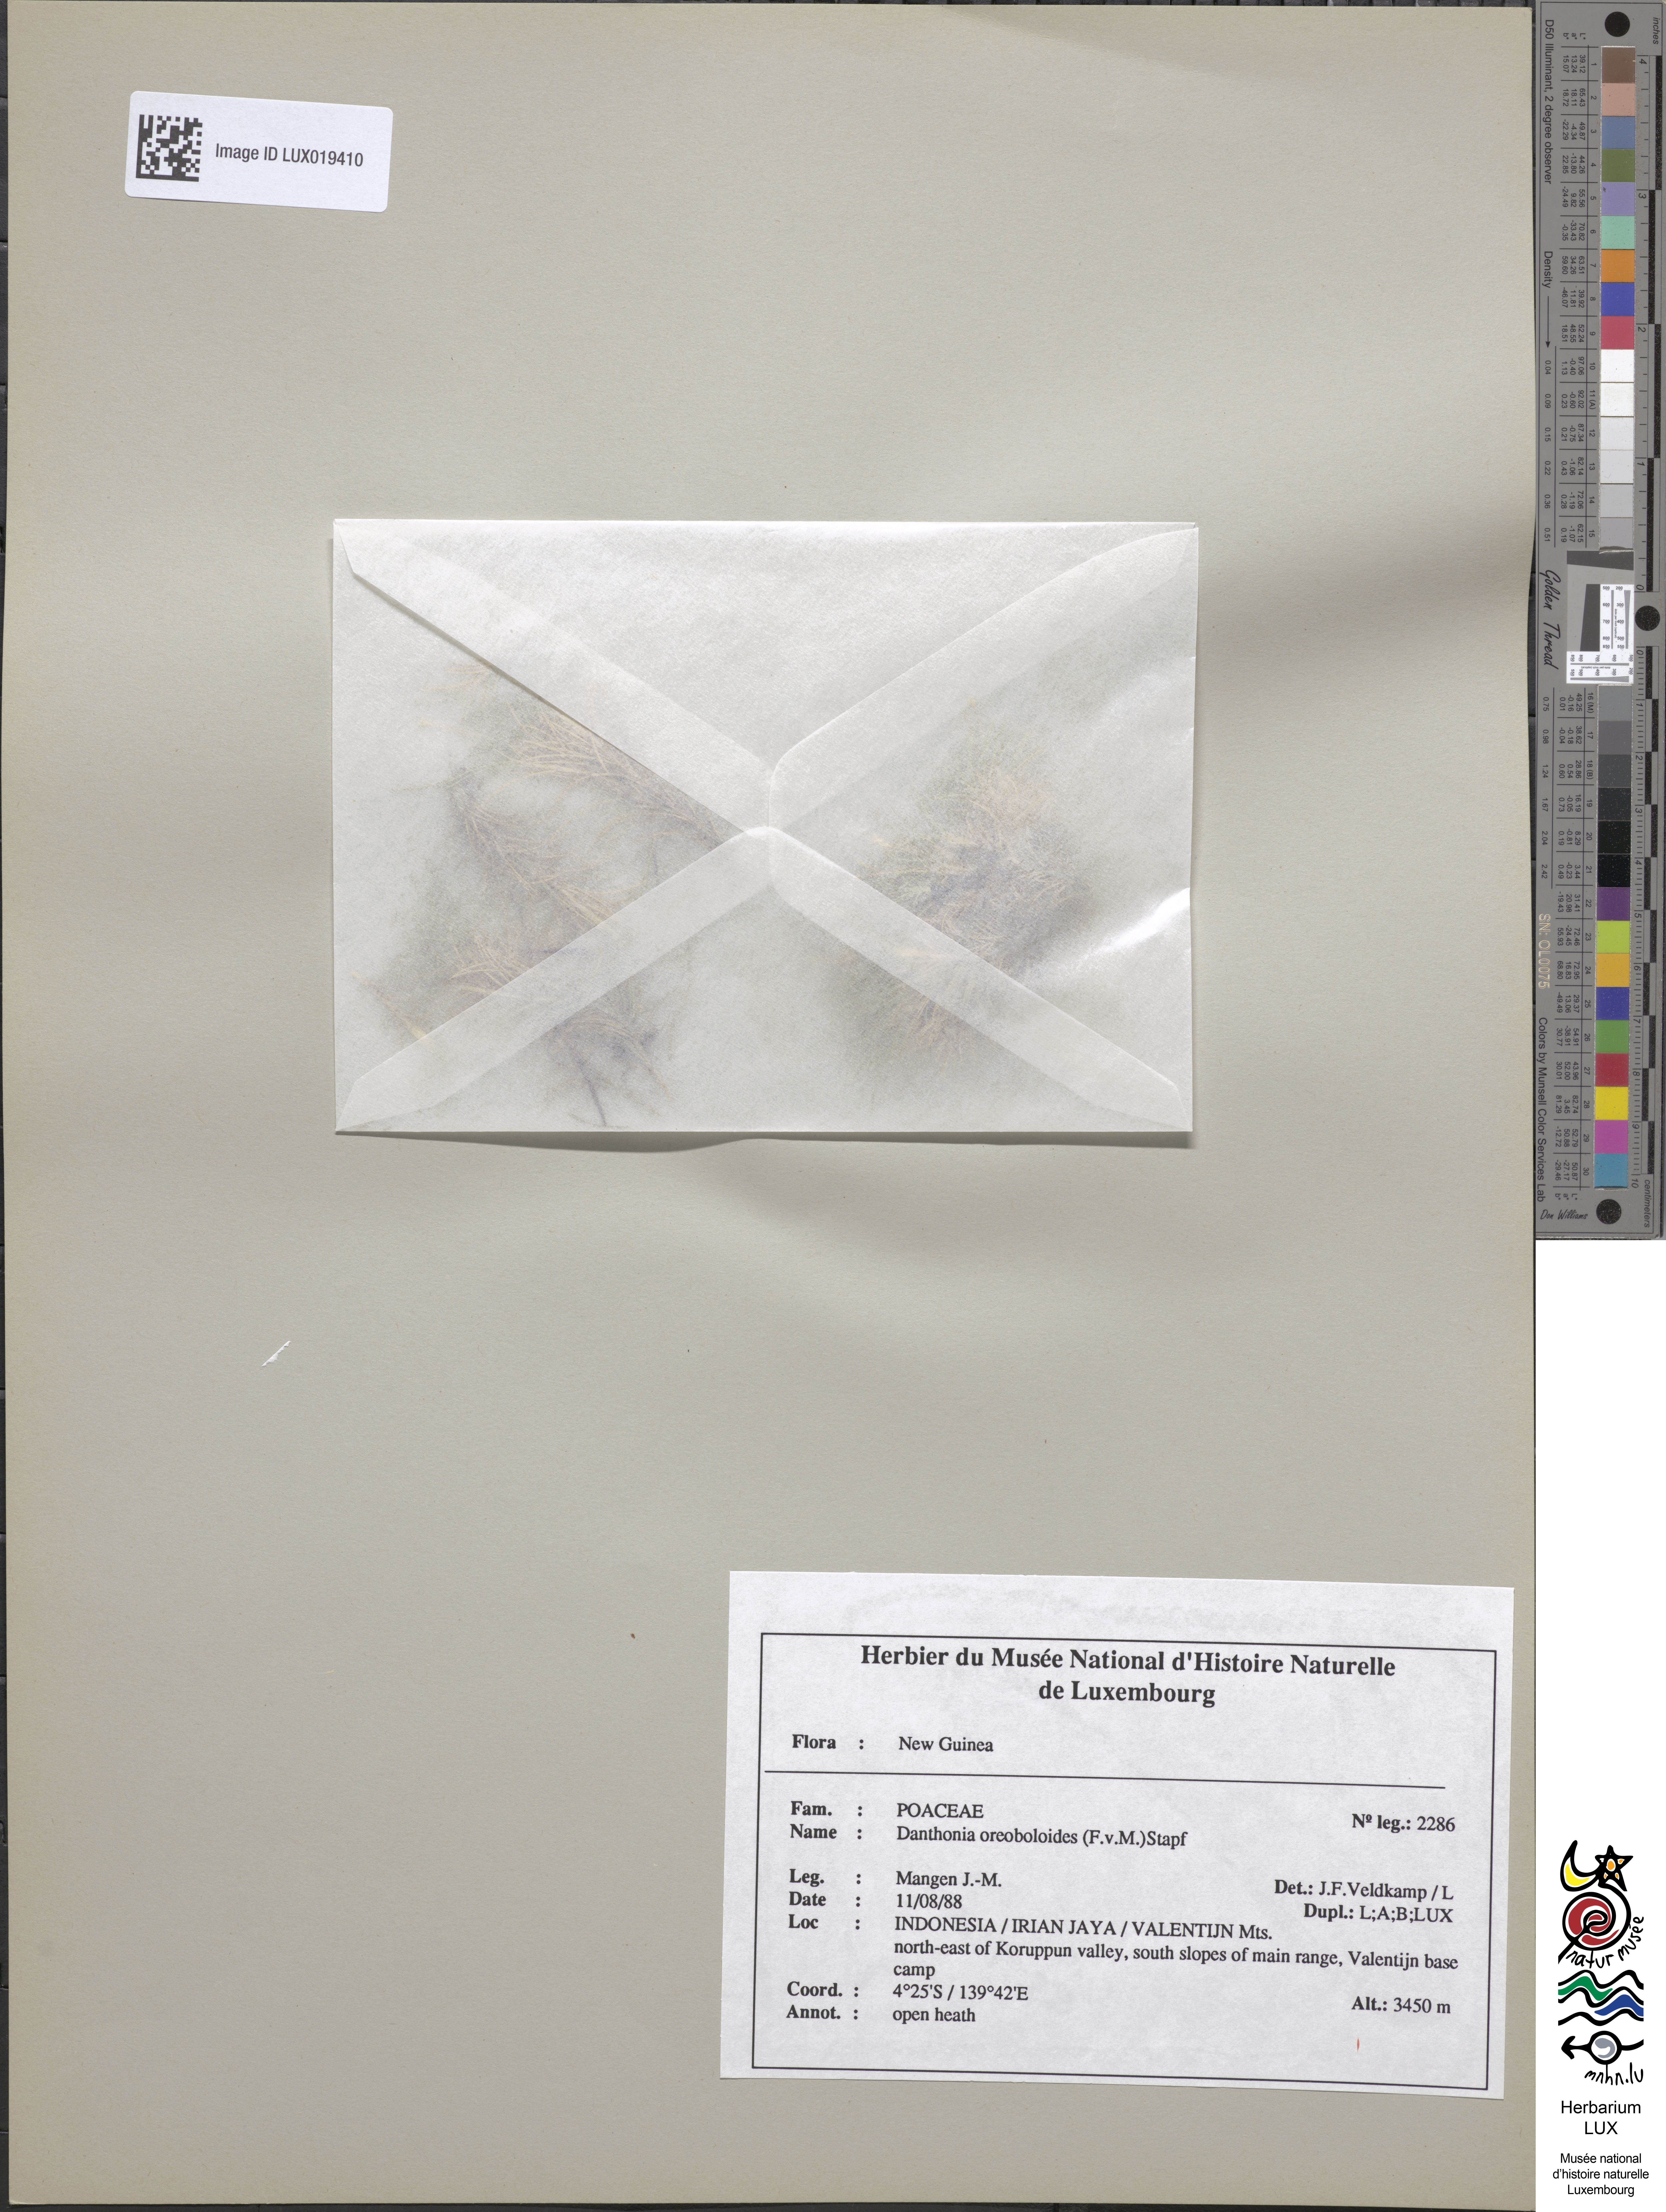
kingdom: Plantae
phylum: Tracheophyta
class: Liliopsida
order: Poales
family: Poaceae
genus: Rytidosperma
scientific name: Rytidosperma oreoboloides
